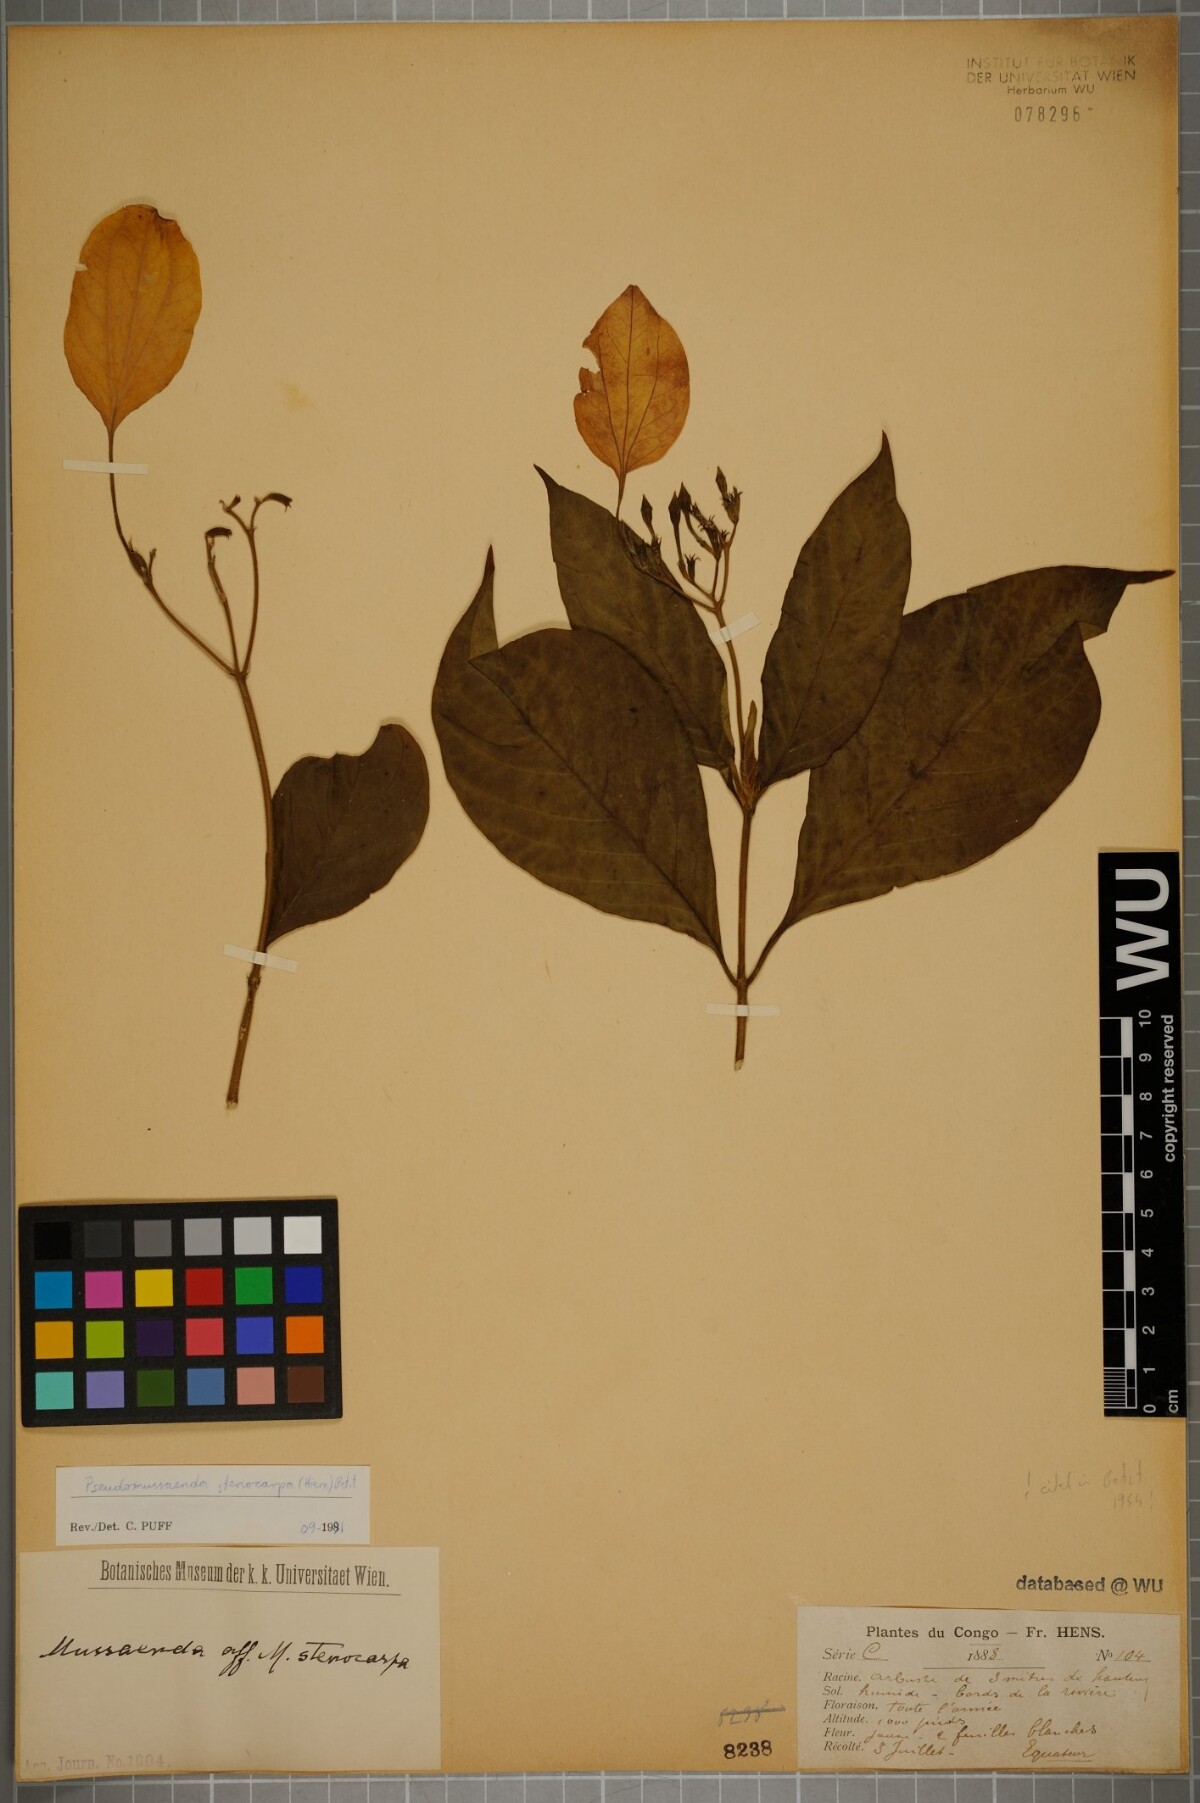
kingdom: Plantae
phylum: Tracheophyta
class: Magnoliopsida
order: Gentianales
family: Rubiaceae
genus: Pseudomussaenda
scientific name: Pseudomussaenda stenocarpa
